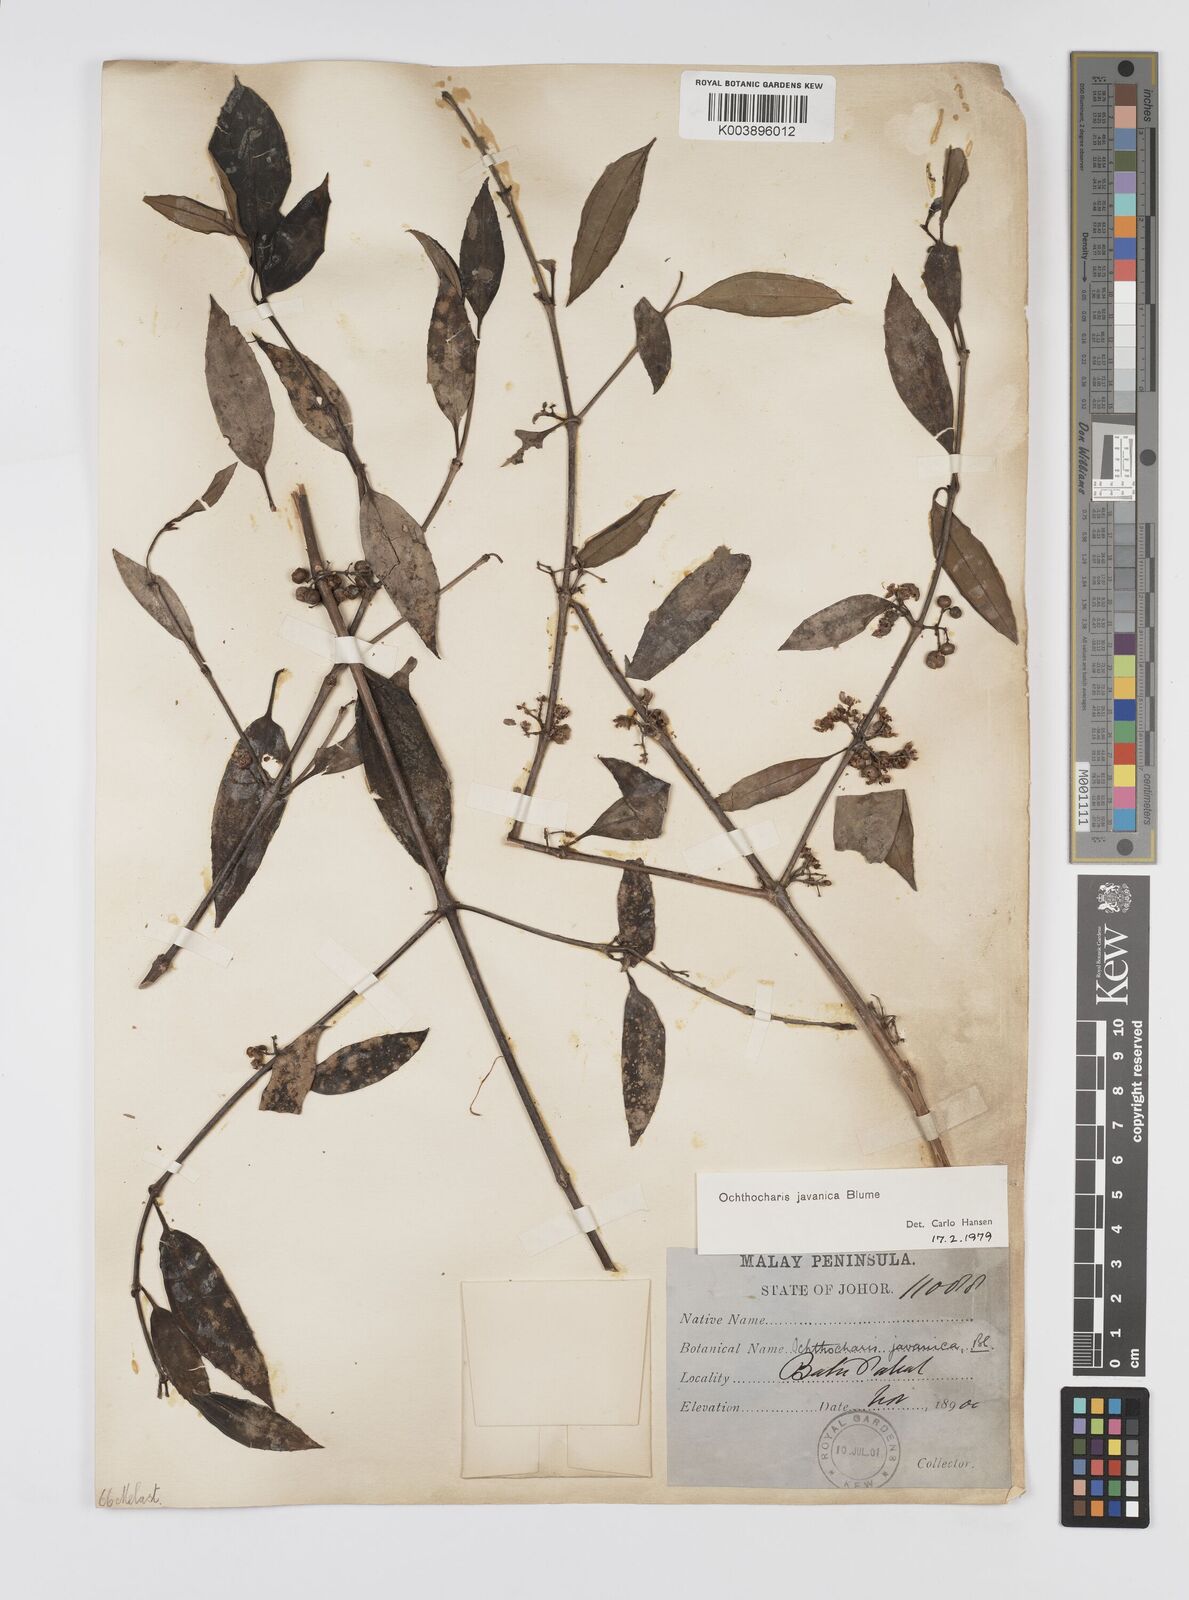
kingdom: Plantae
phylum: Tracheophyta
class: Magnoliopsida
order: Myrtales
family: Melastomataceae
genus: Ochthocharis
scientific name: Ochthocharis javanica
